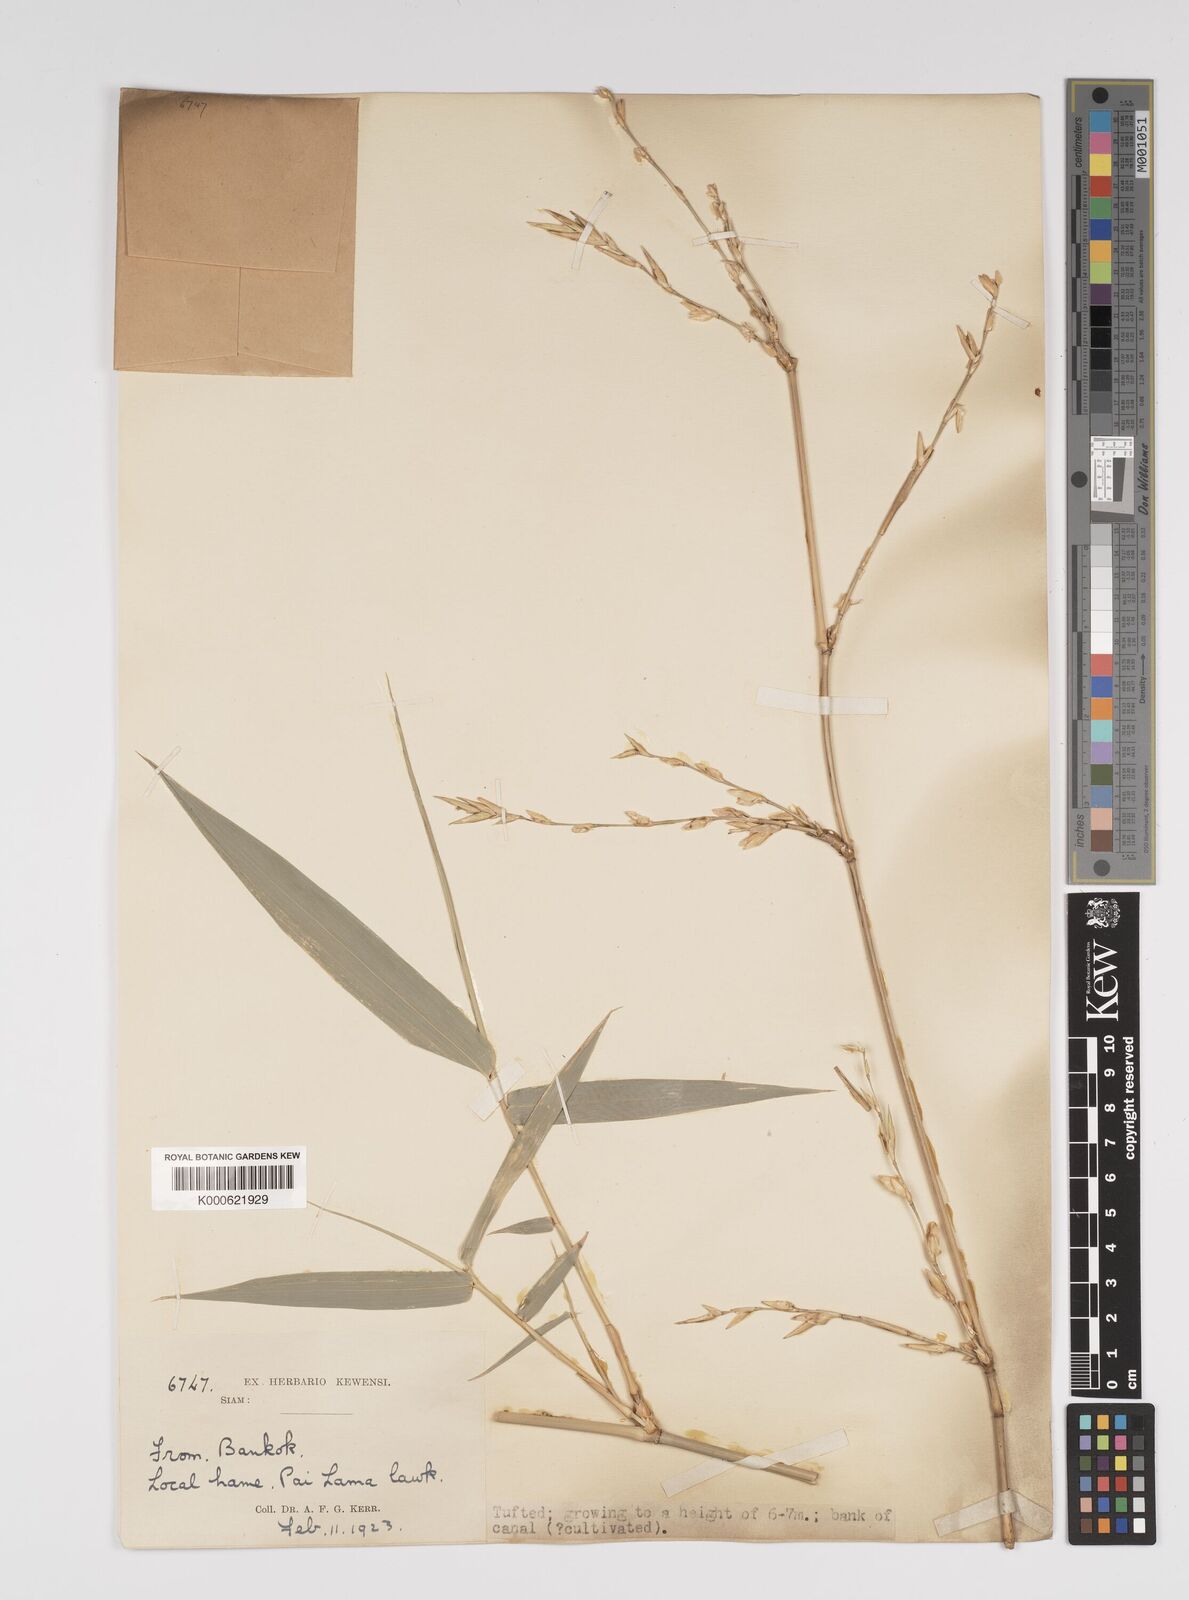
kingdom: Plantae
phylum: Tracheophyta
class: Liliopsida
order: Poales
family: Poaceae
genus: Bambusa
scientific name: Bambusa
